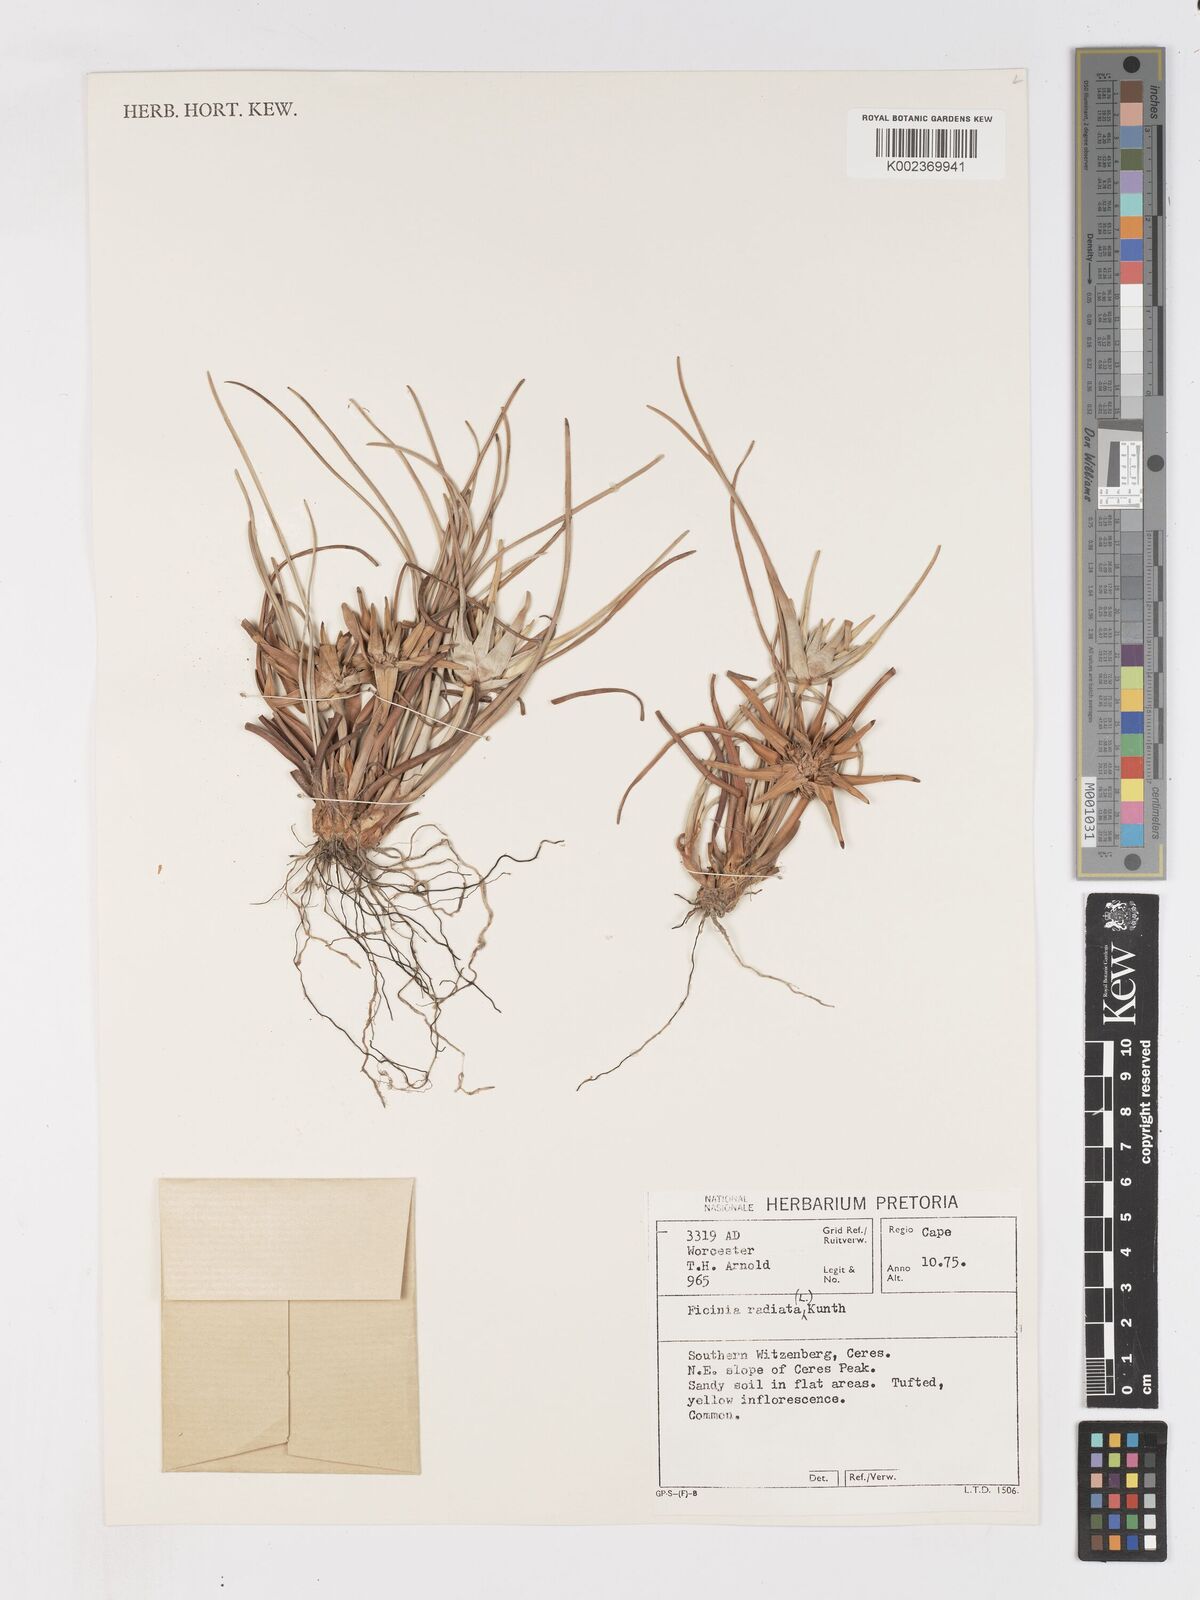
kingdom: Plantae
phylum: Tracheophyta
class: Liliopsida
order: Poales
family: Cyperaceae
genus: Ficinia
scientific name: Ficinia radiata
